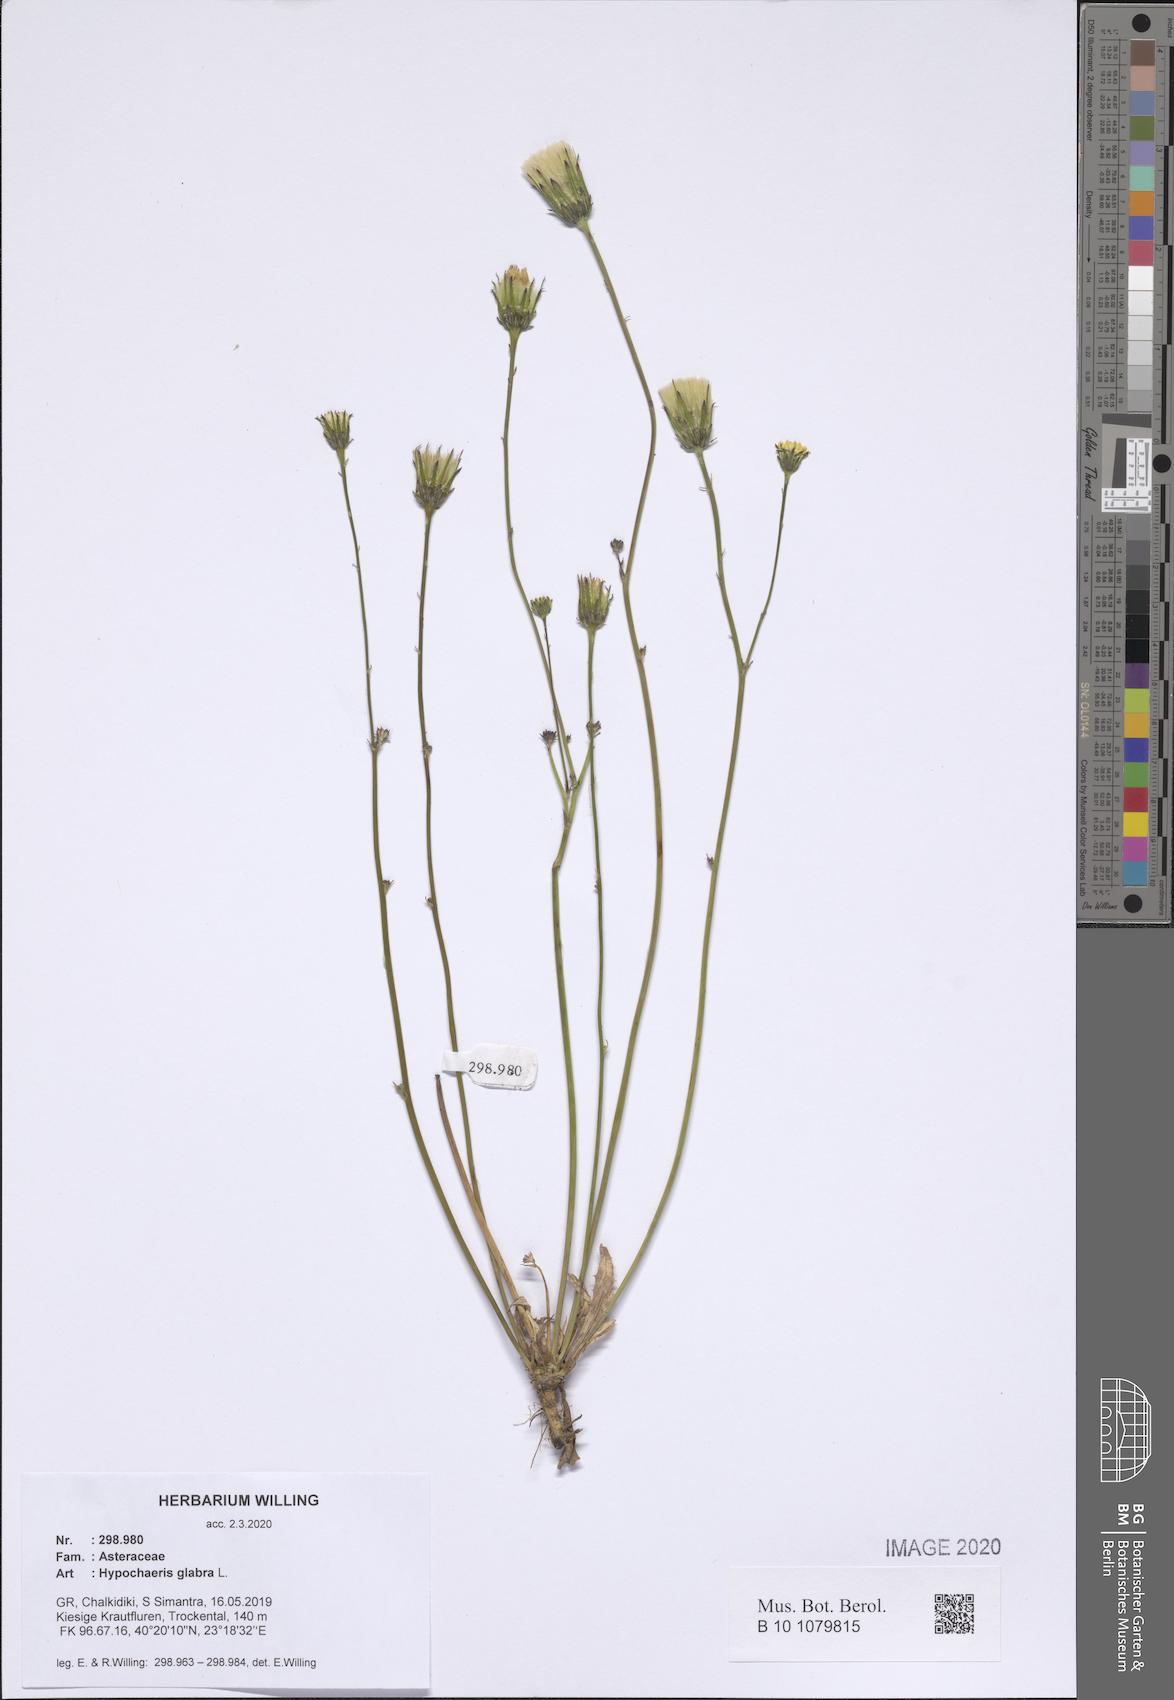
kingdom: Plantae
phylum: Tracheophyta
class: Magnoliopsida
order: Asterales
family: Asteraceae
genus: Hypochaeris
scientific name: Hypochaeris glabra
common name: Smooth catsear
